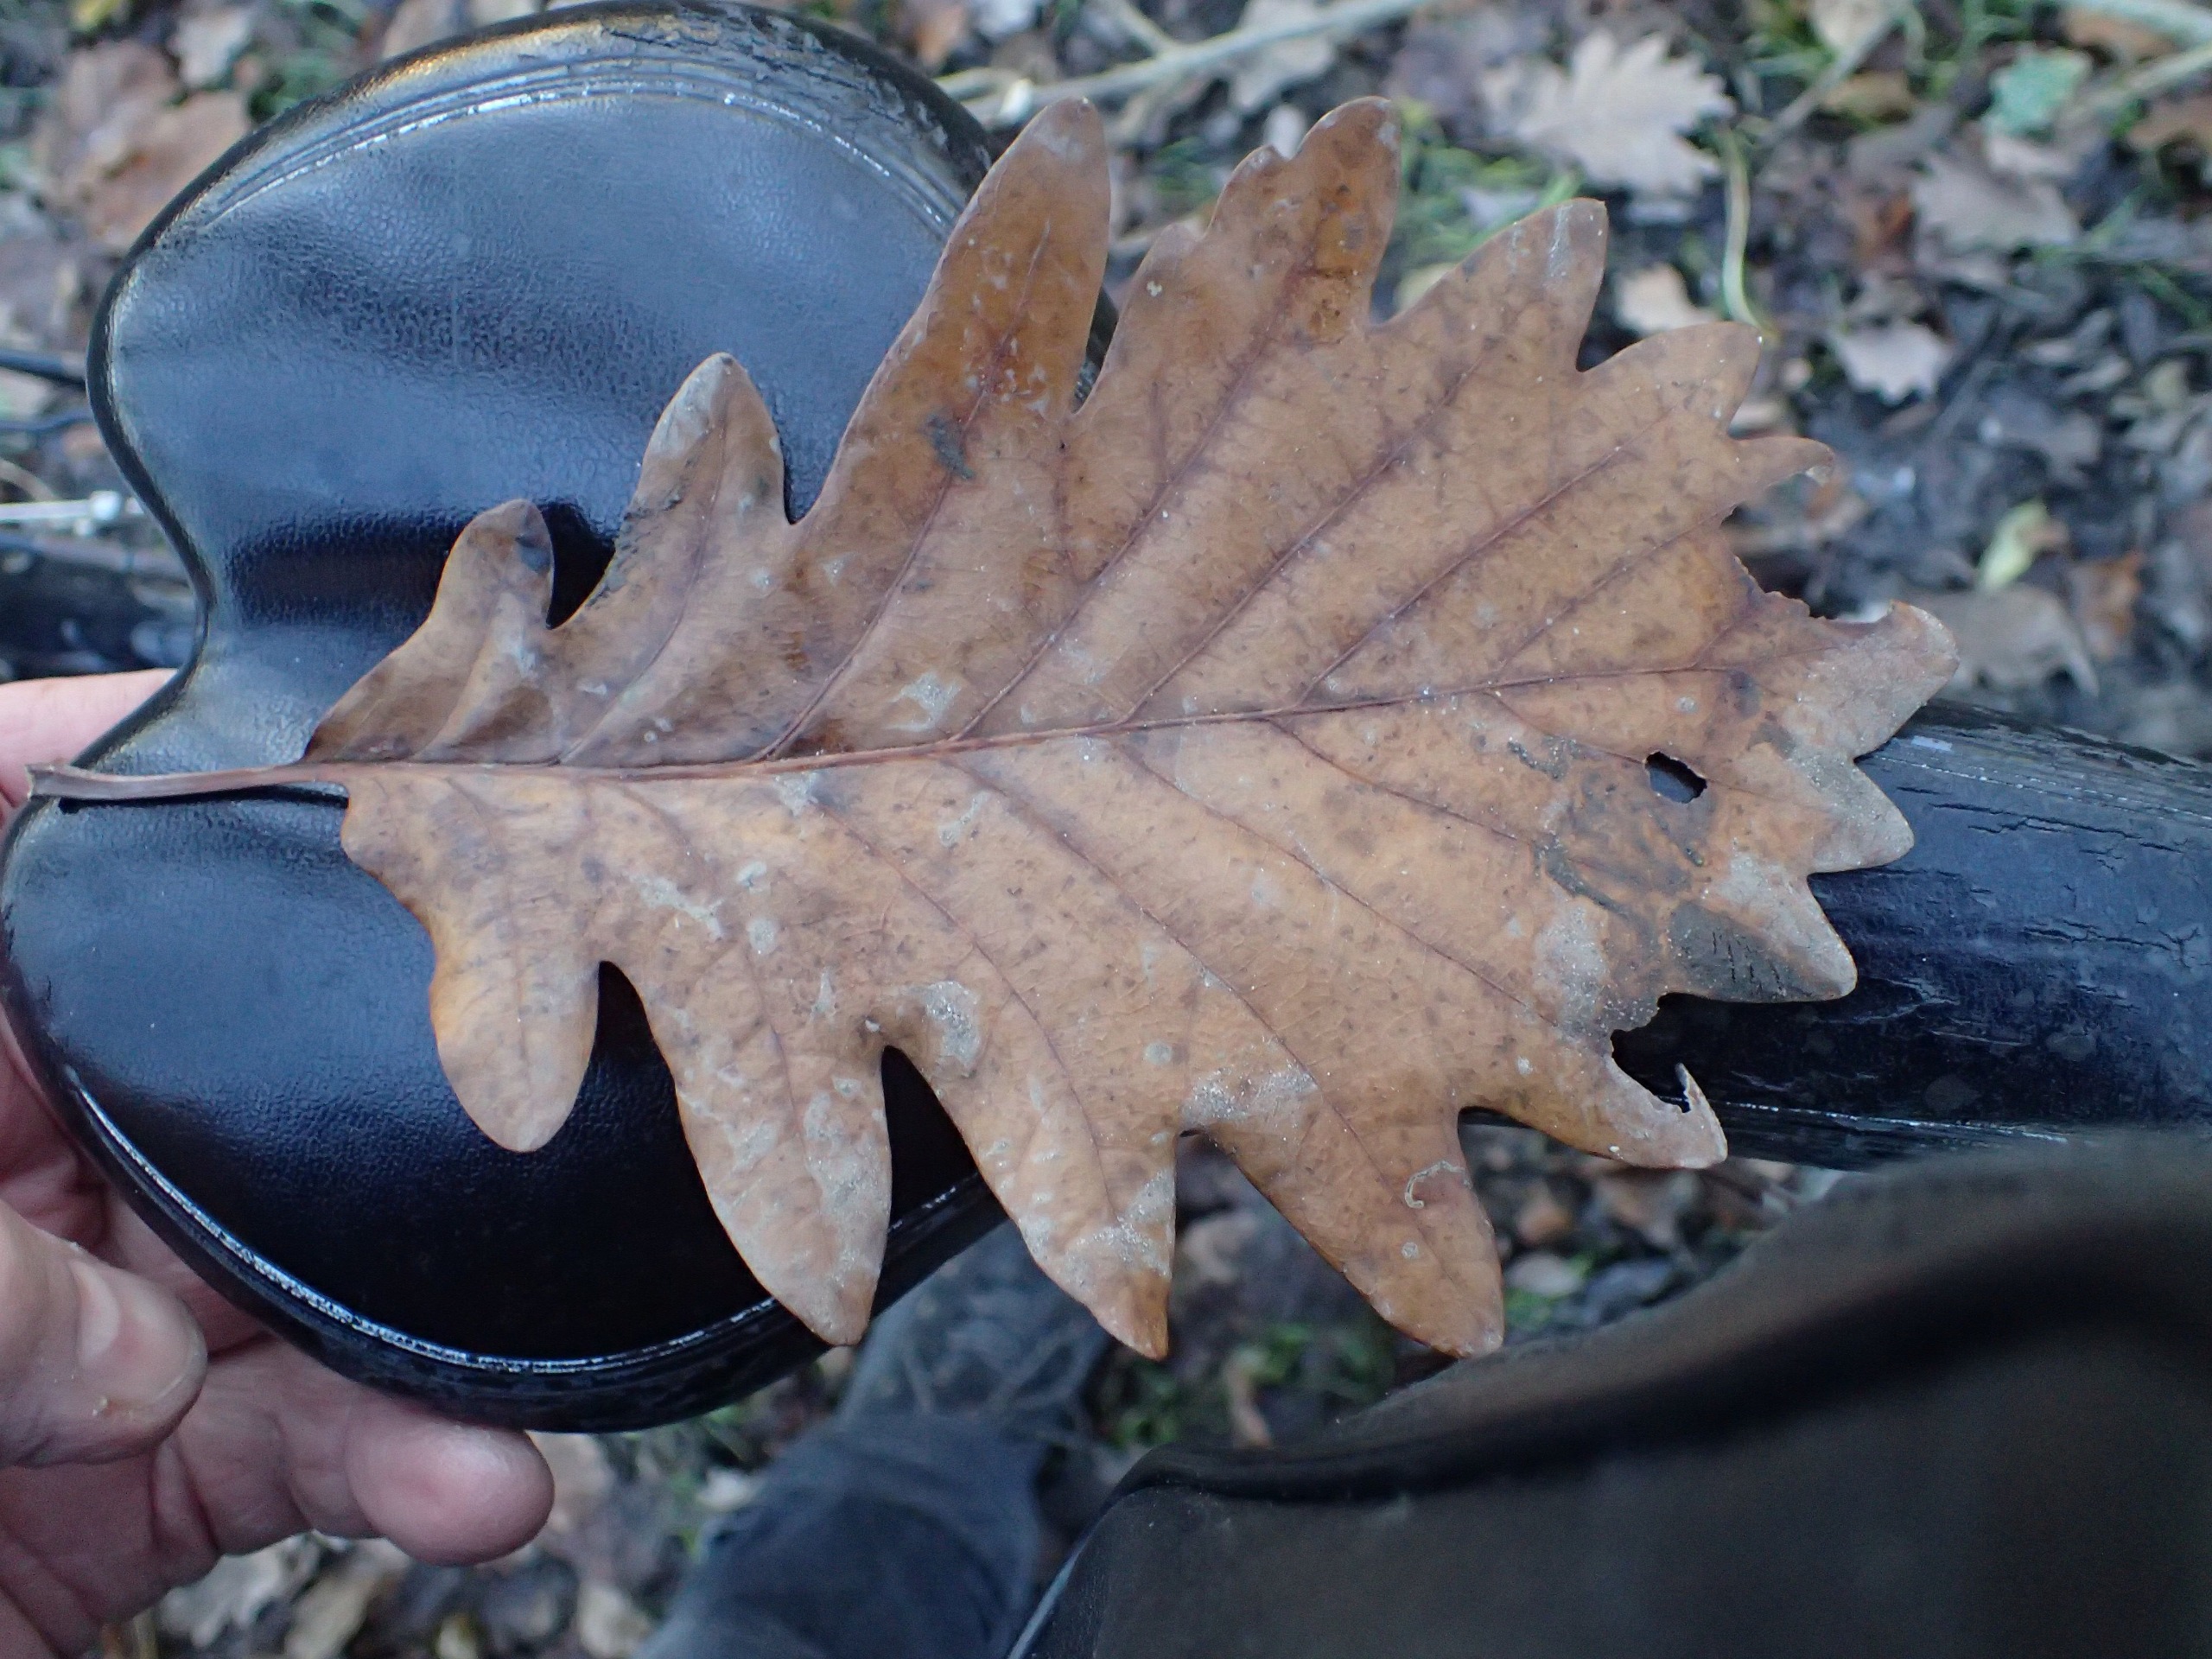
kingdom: Plantae
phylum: Tracheophyta
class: Magnoliopsida
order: Fagales
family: Fagaceae
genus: Quercus
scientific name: Quercus petraea
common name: Vinter-eg
